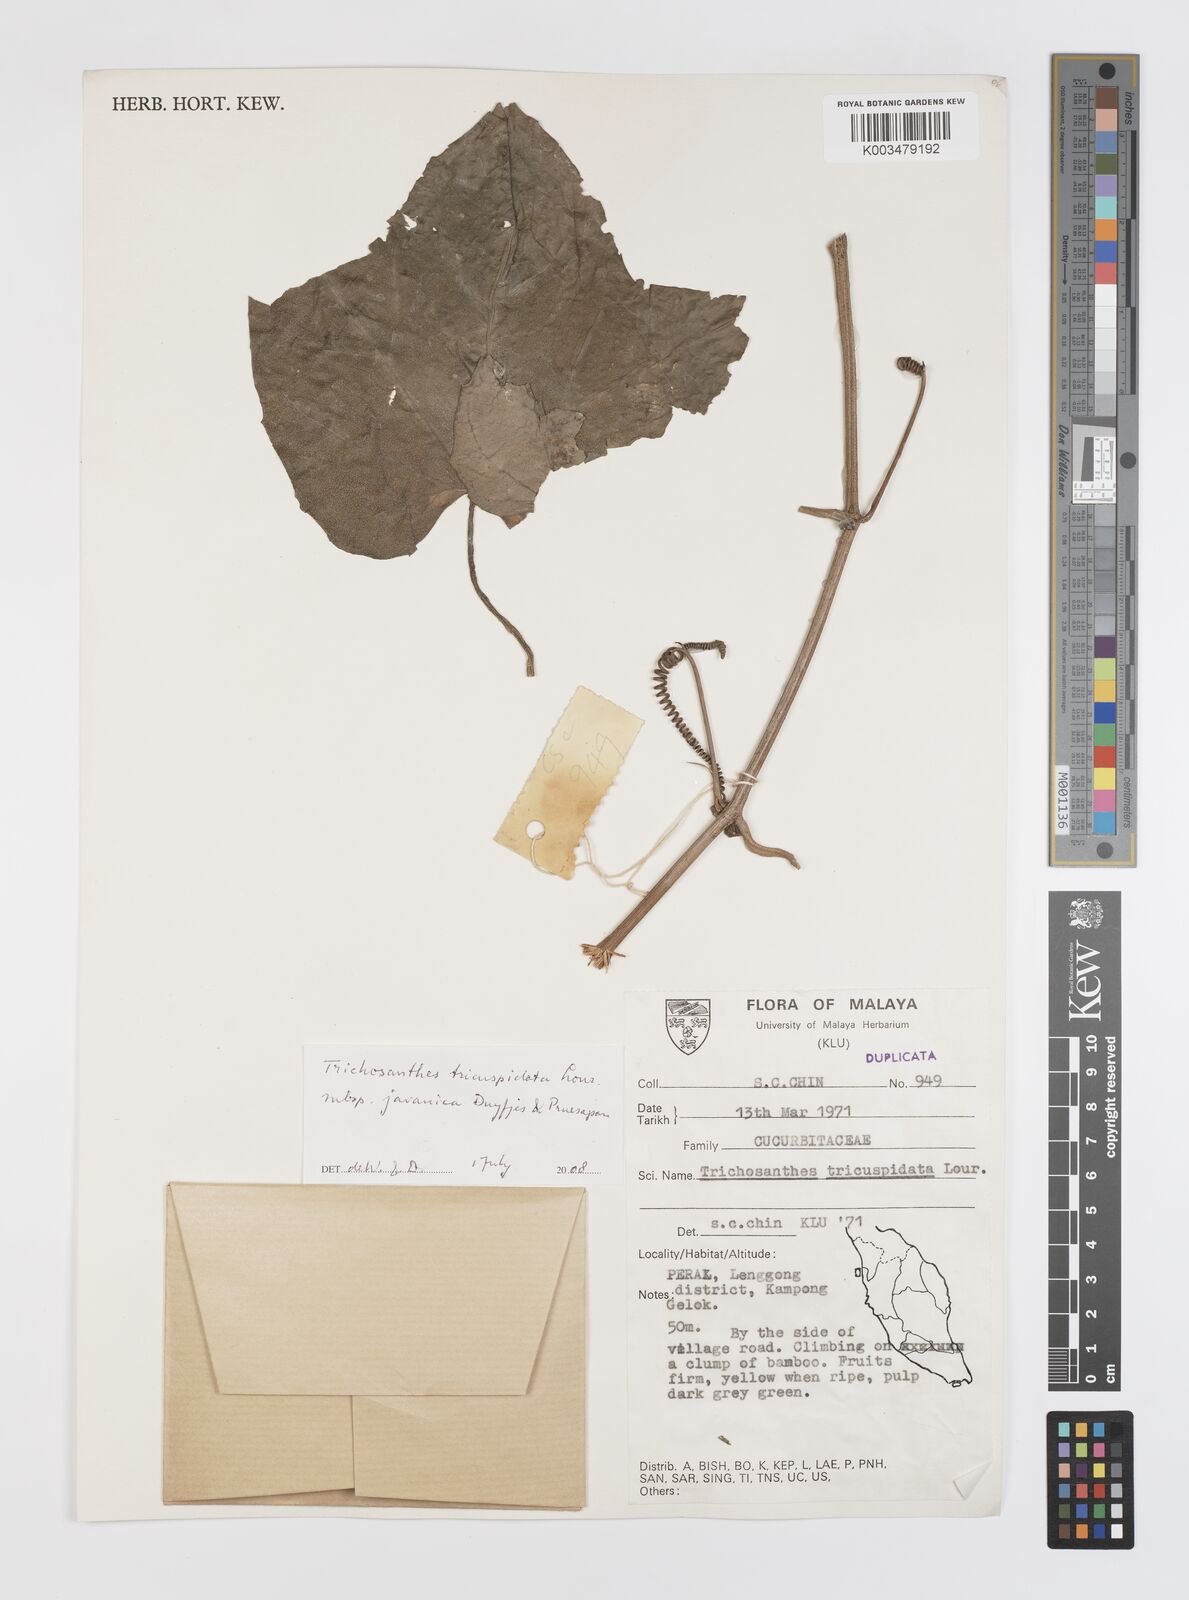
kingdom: Plantae
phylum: Tracheophyta
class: Magnoliopsida
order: Cucurbitales
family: Cucurbitaceae
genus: Trichosanthes
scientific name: Trichosanthes tricuspidata
